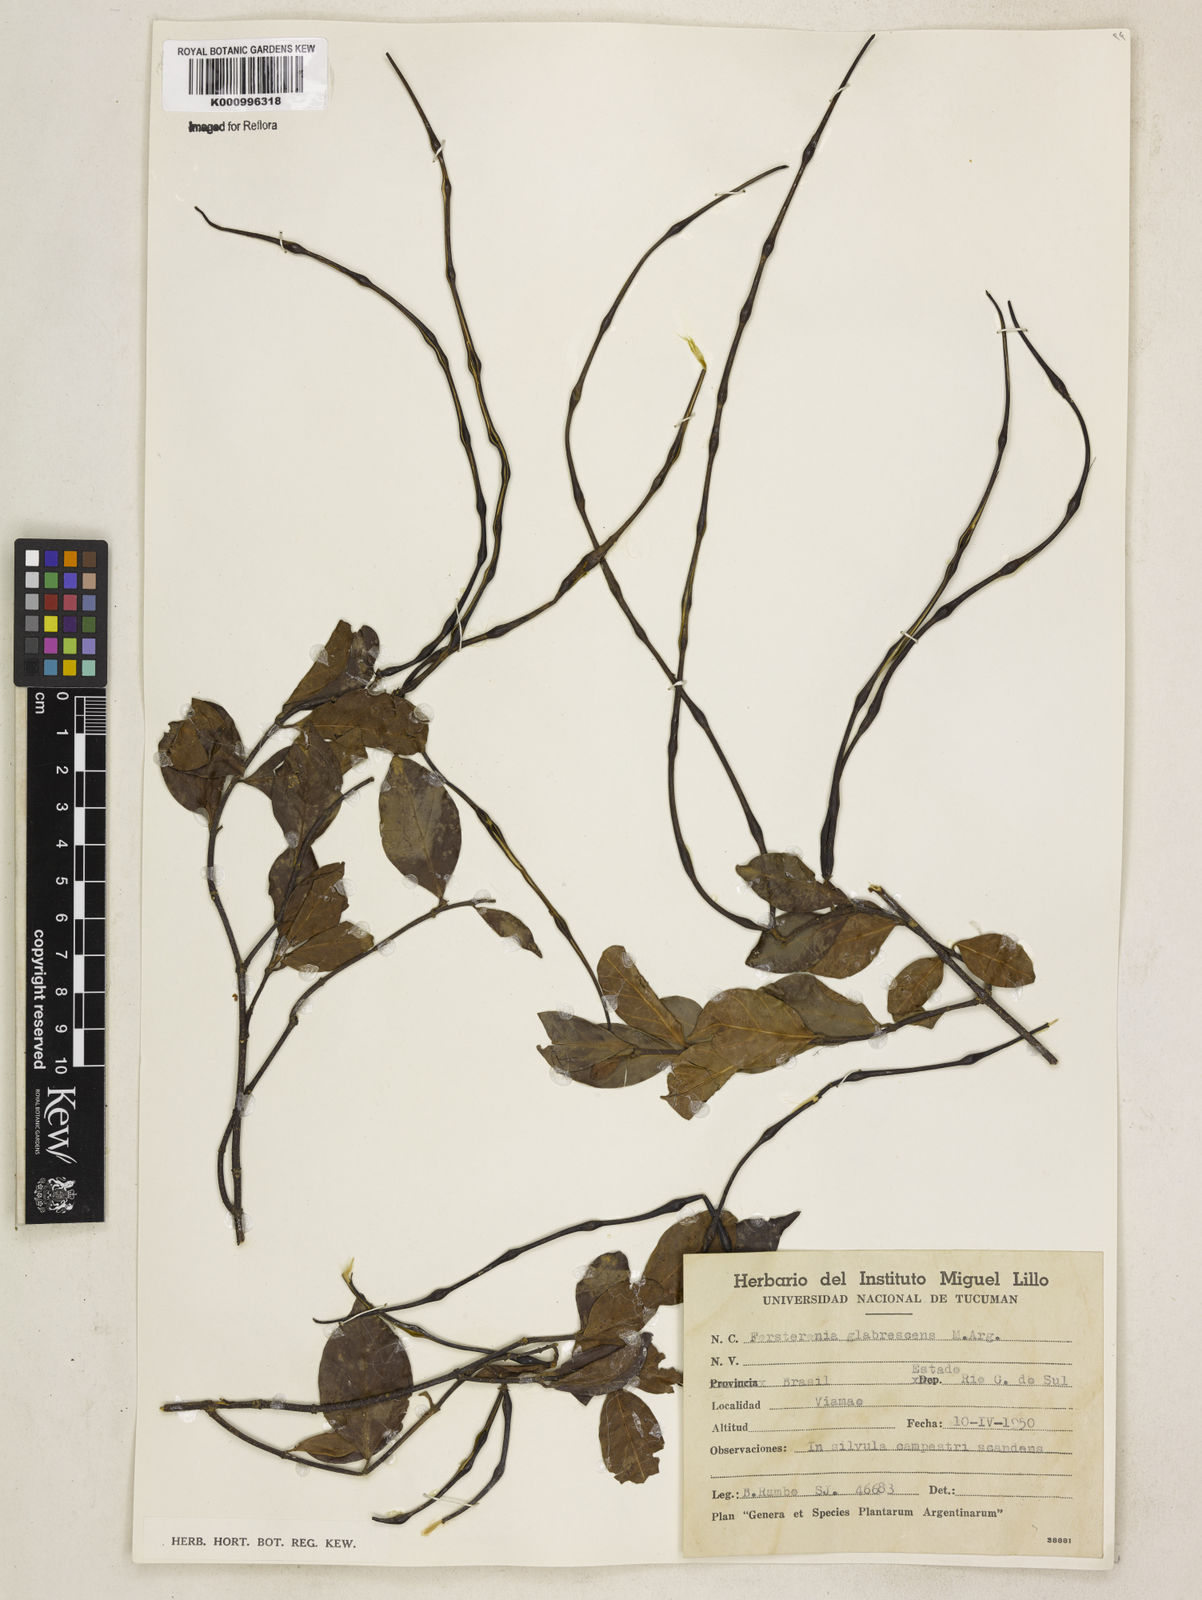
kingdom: Plantae
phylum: Tracheophyta
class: Magnoliopsida
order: Gentianales
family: Apocynaceae
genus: Forsteronia
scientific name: Forsteronia
